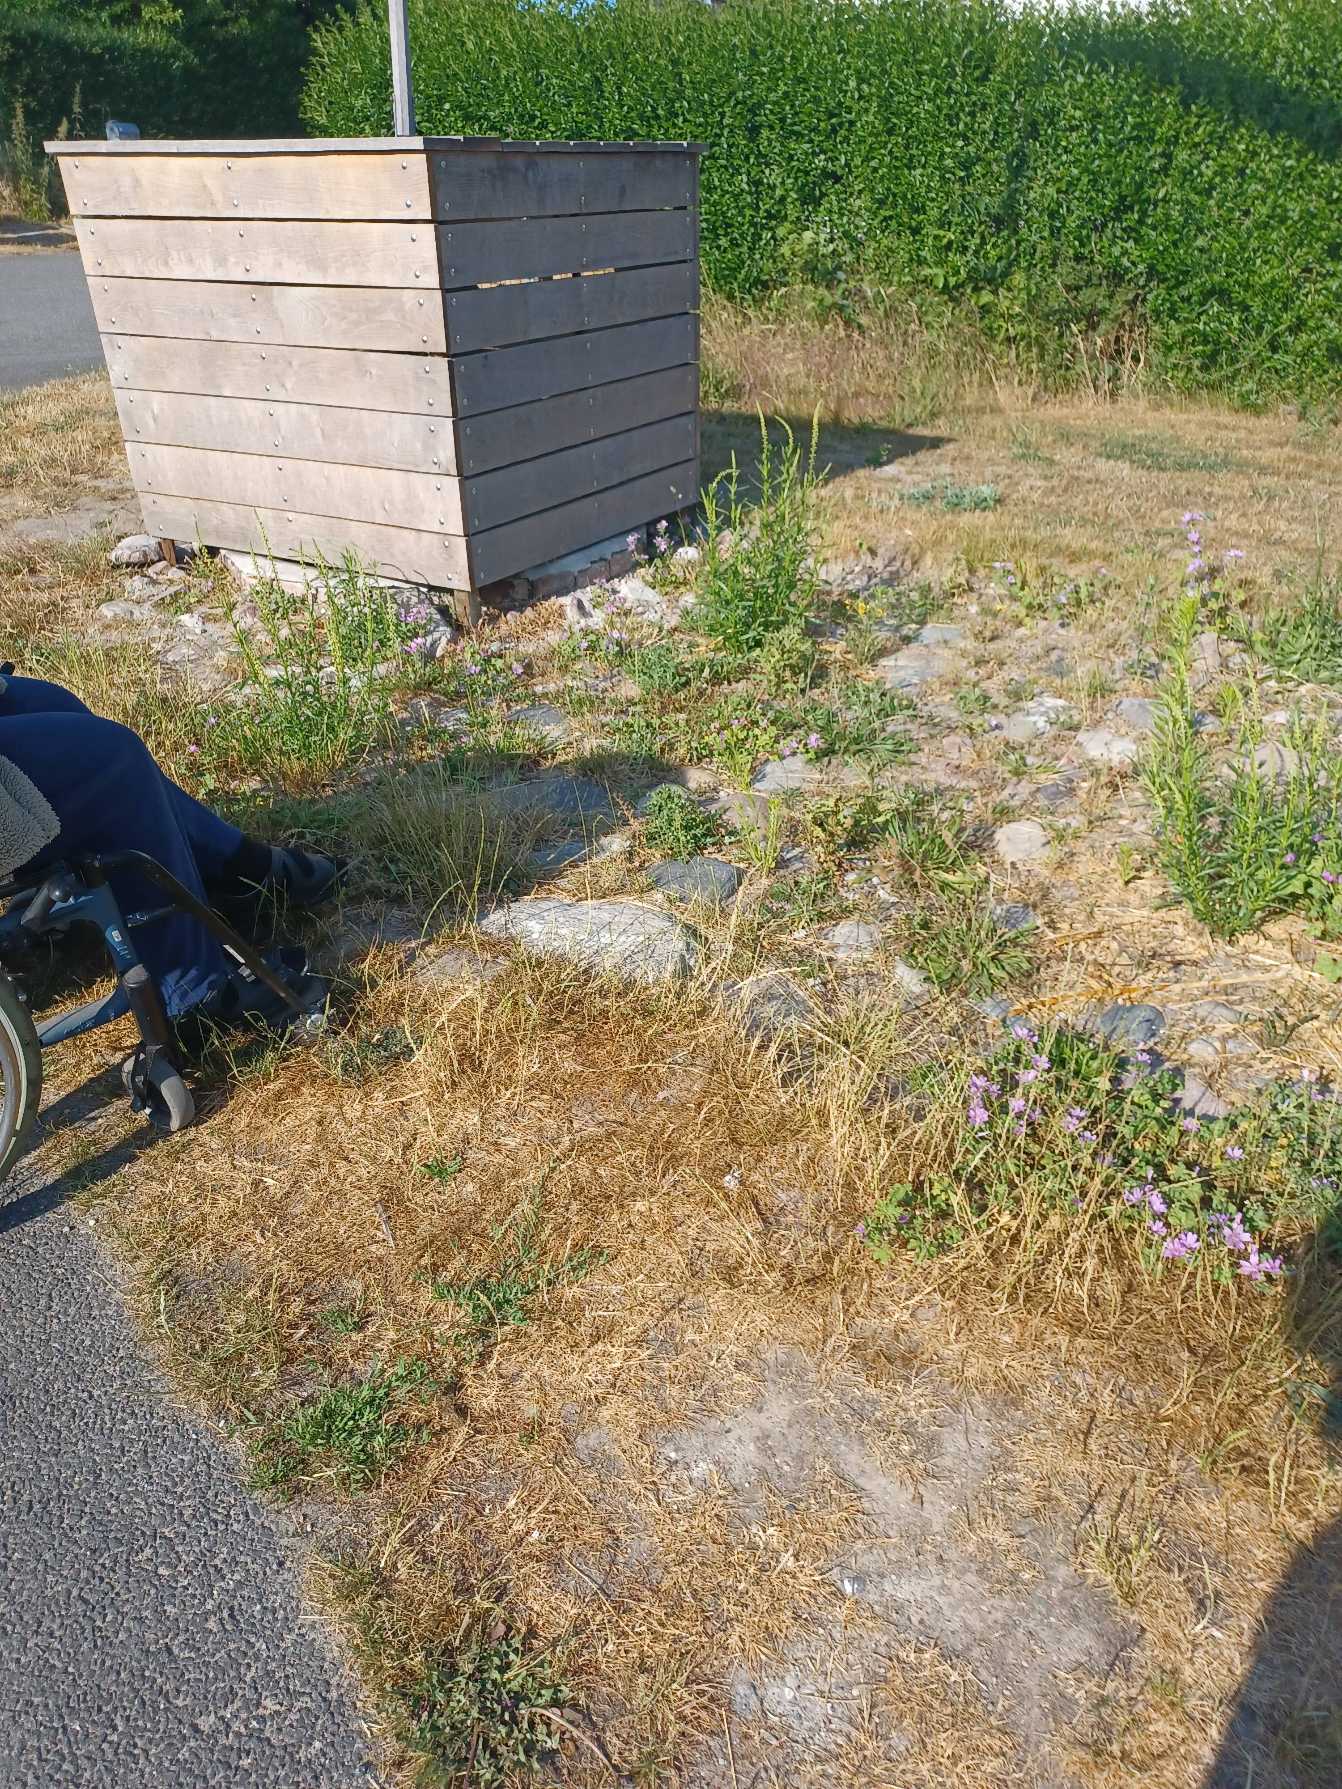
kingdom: Plantae
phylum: Tracheophyta
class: Magnoliopsida
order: Brassicales
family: Resedaceae
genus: Reseda
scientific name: Reseda luteola
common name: Farve-reseda
